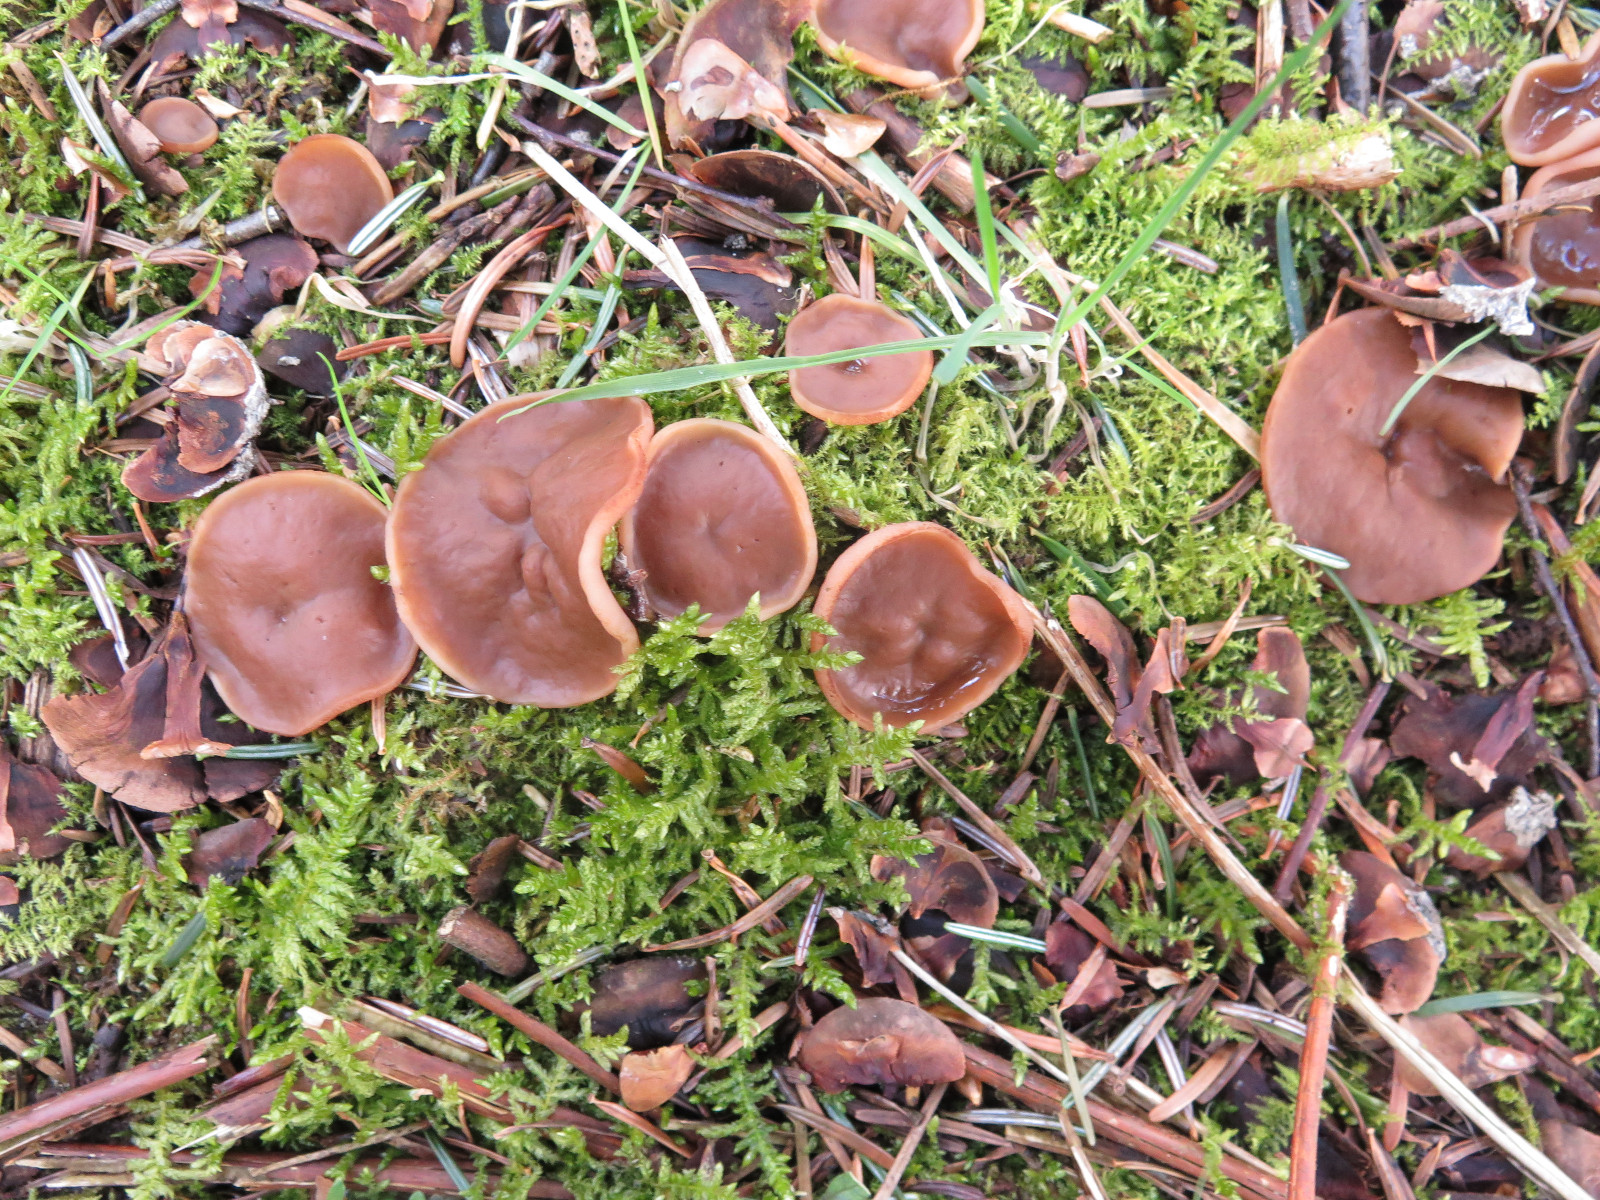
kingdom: Fungi
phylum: Ascomycota
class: Pezizomycetes
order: Pezizales
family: Discinaceae
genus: Discina
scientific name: Discina ancilis
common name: udbredt stenmorkel
